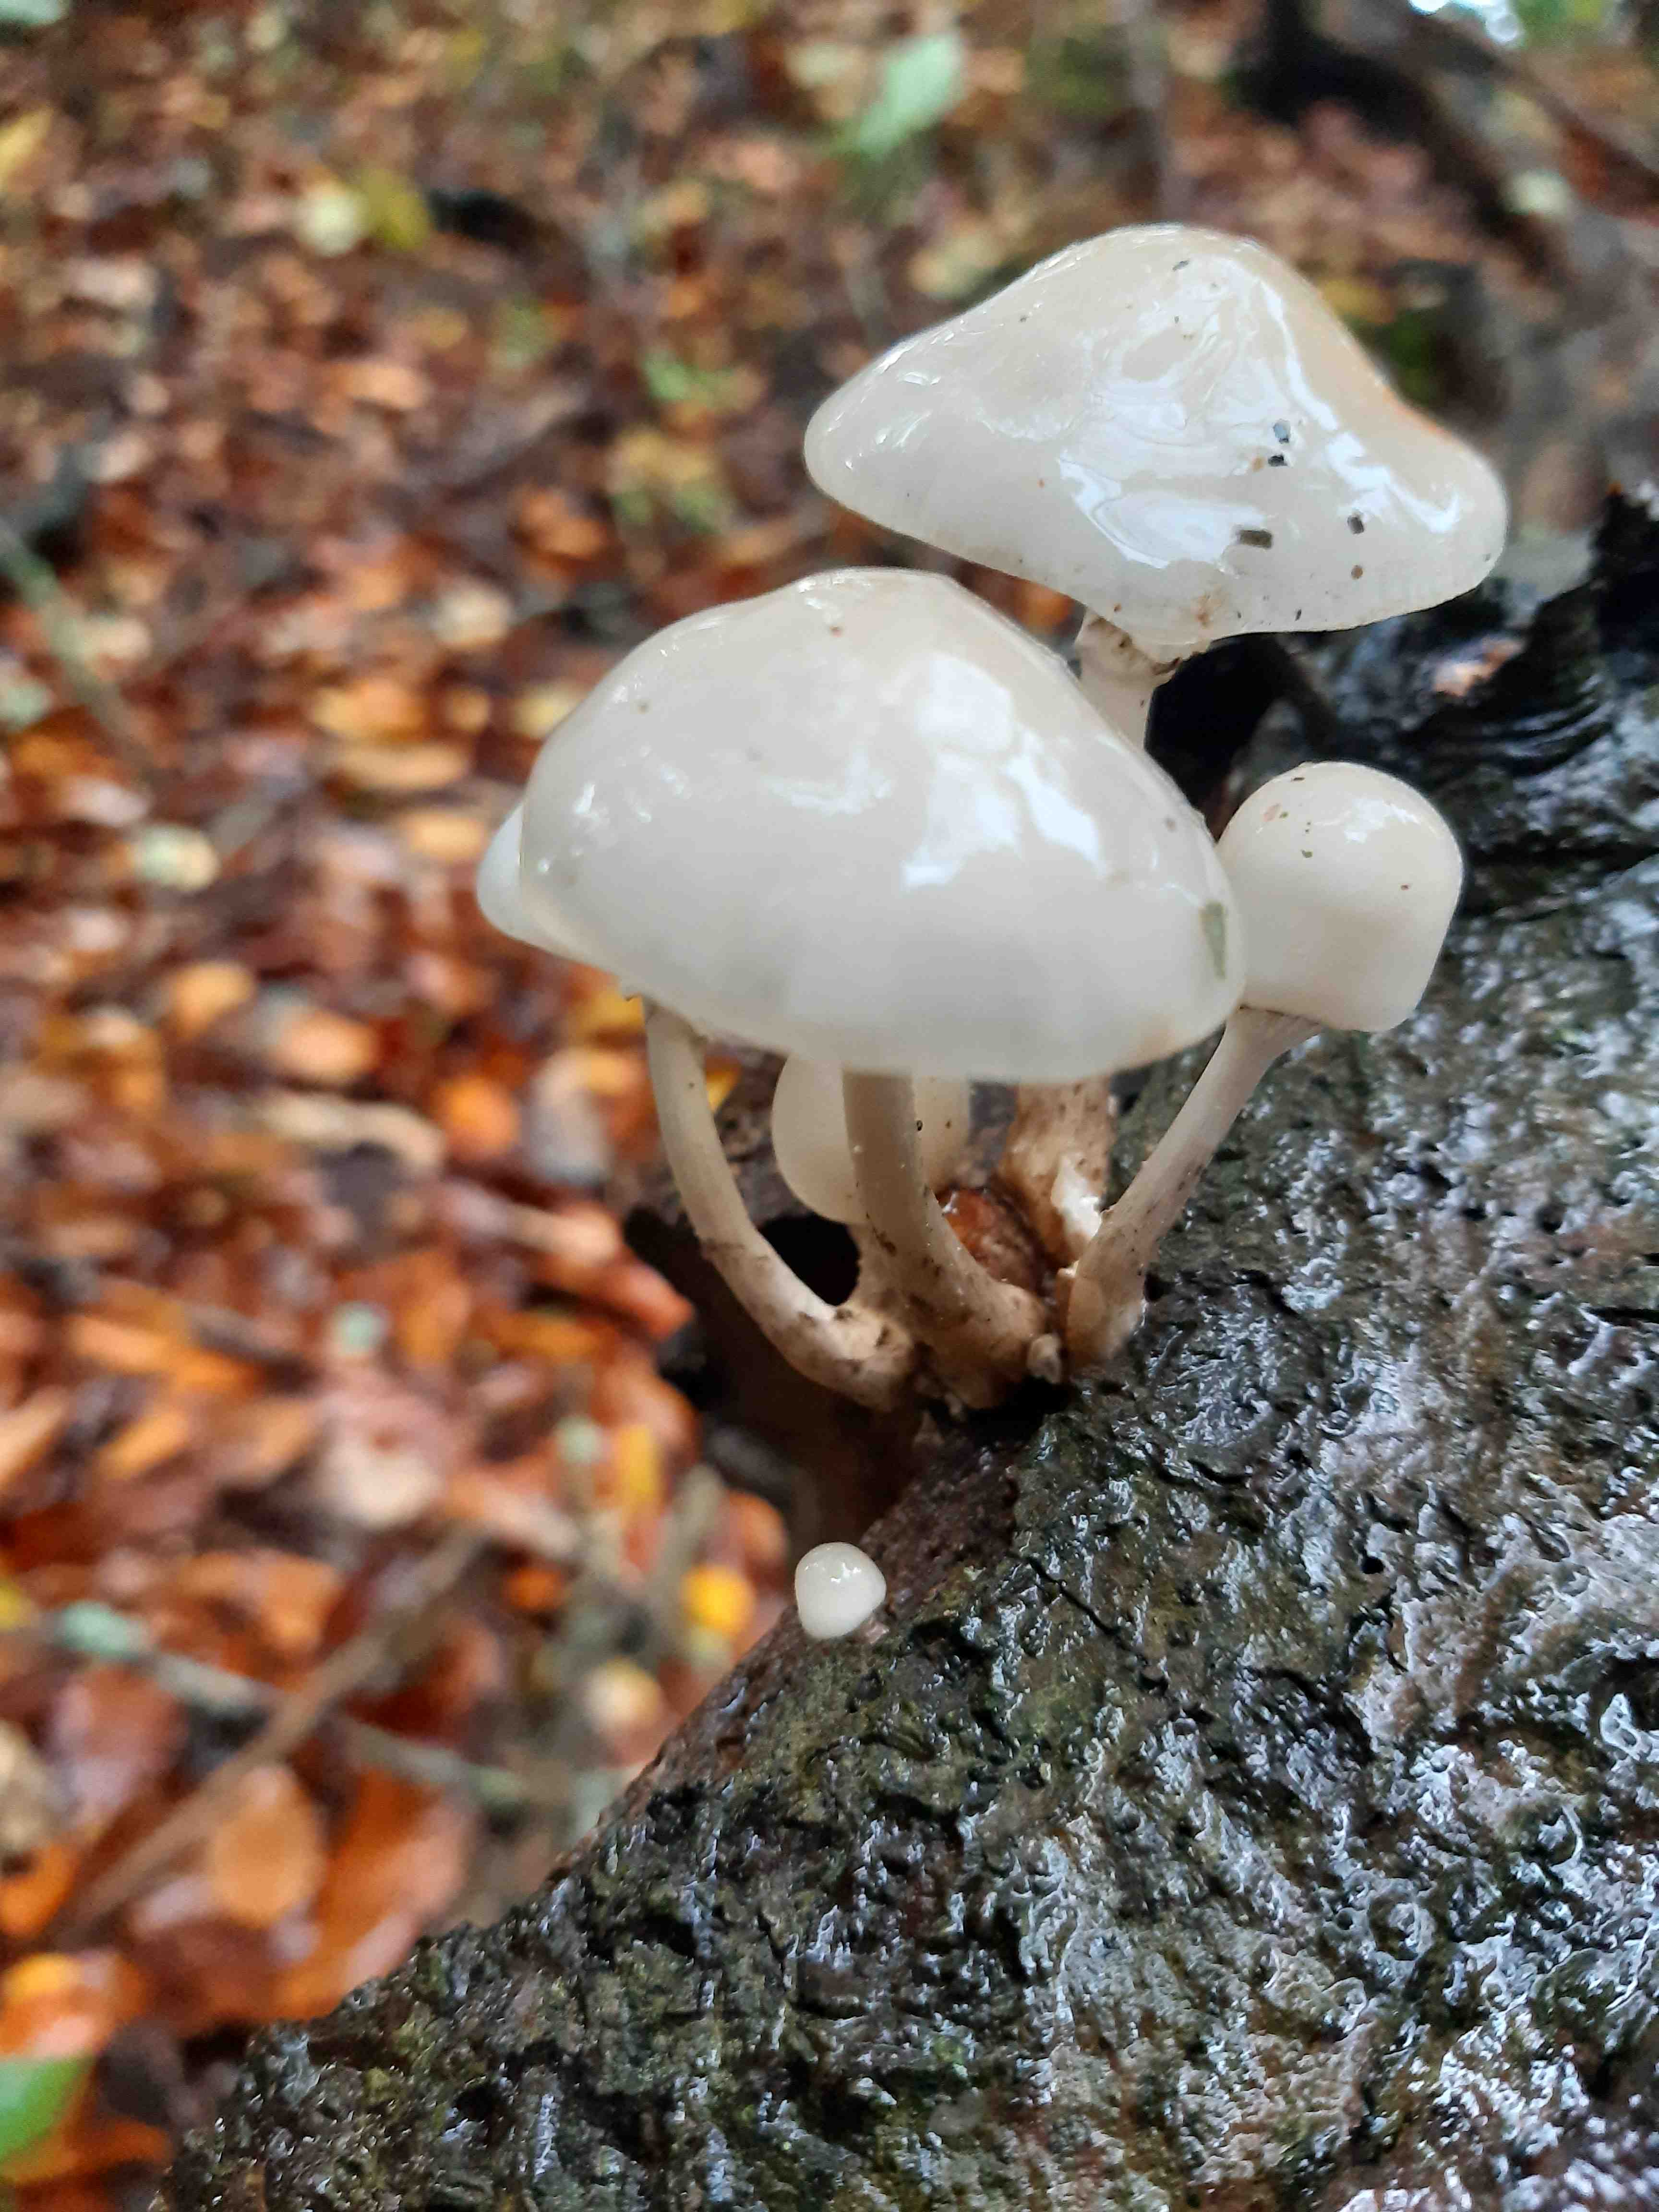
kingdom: Fungi
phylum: Basidiomycota
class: Agaricomycetes
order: Agaricales
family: Physalacriaceae
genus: Mucidula
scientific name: Mucidula mucida
